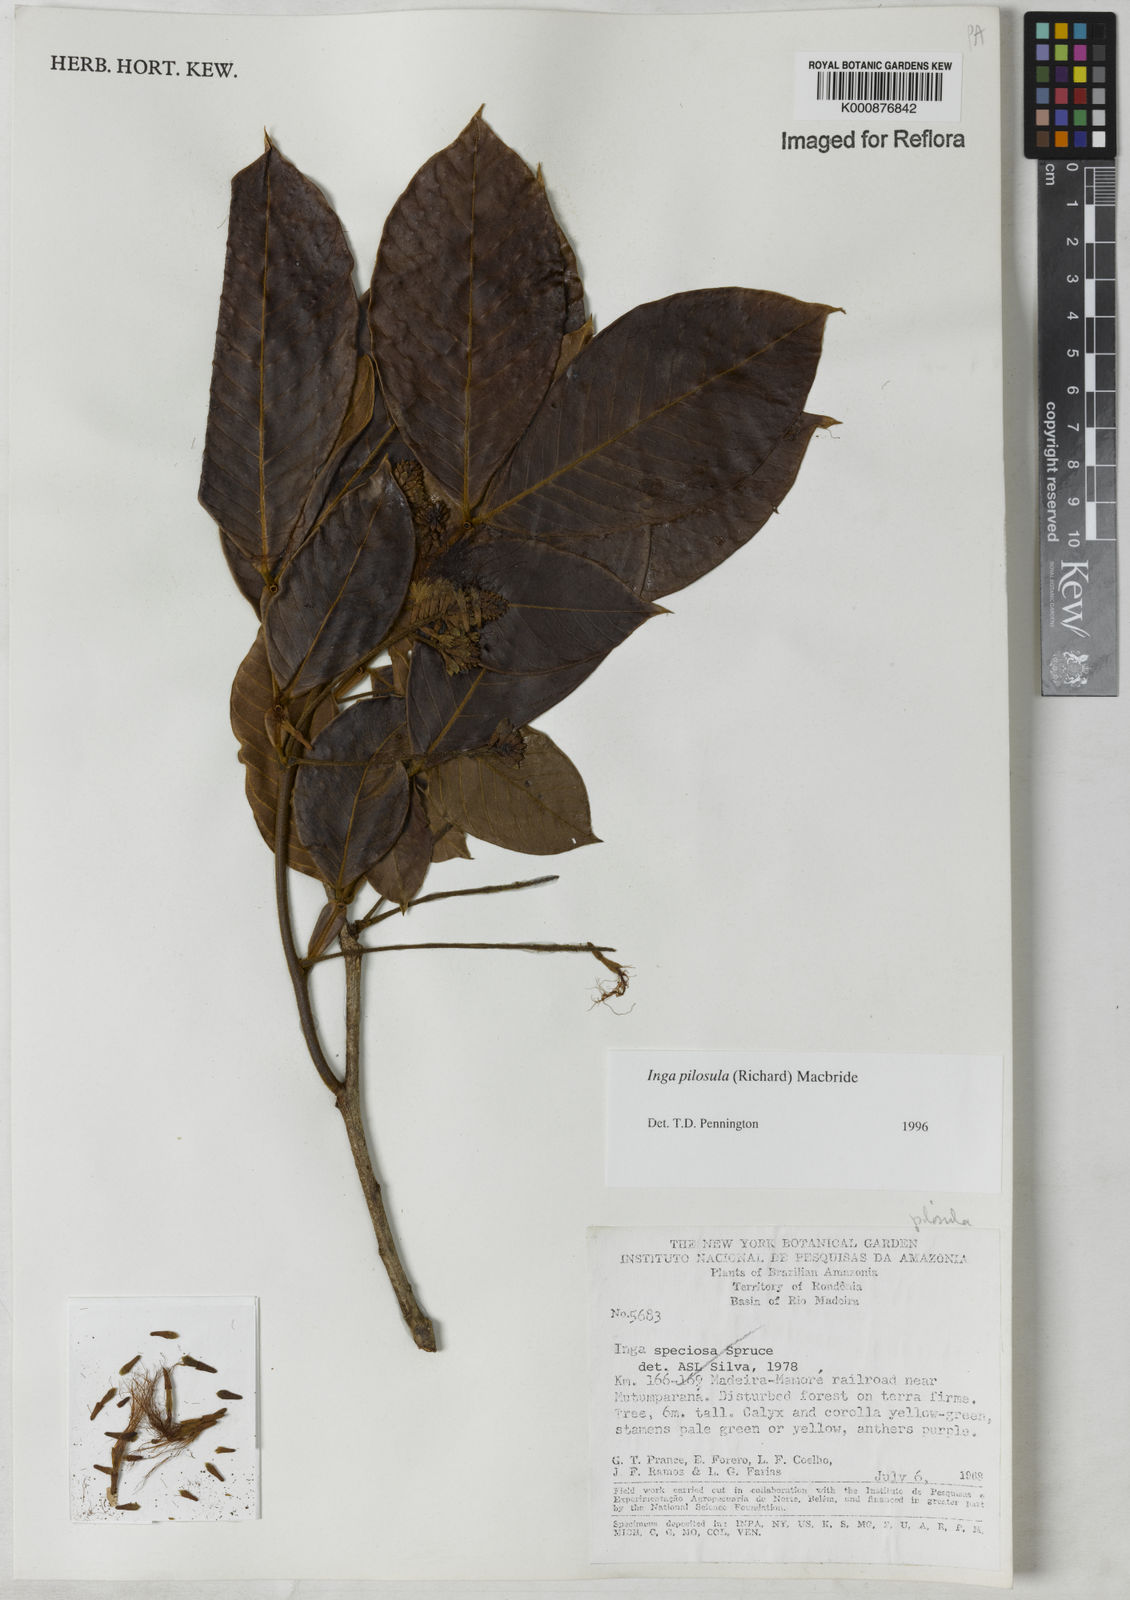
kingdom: Plantae
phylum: Tracheophyta
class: Magnoliopsida
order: Fabales
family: Fabaceae
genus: Inga
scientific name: Inga pilosula
